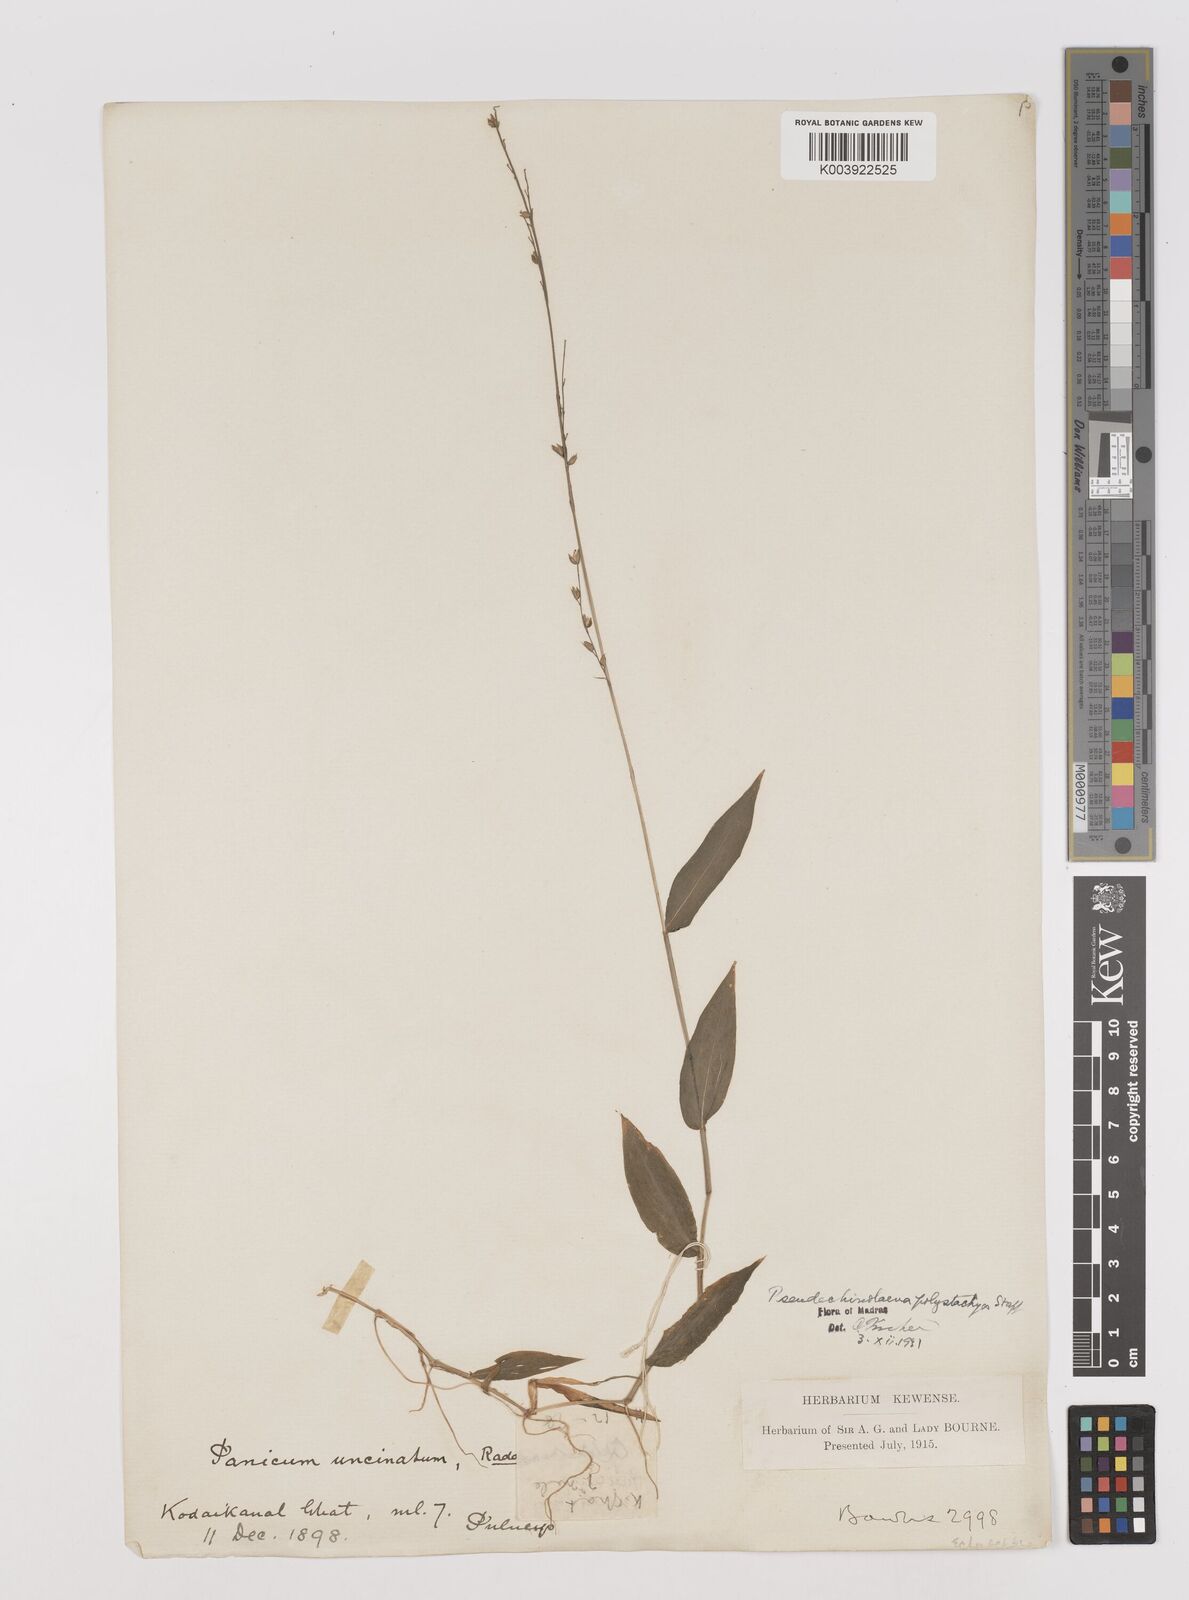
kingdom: Plantae
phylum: Tracheophyta
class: Liliopsida
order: Poales
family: Poaceae
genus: Pseudechinolaena
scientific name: Pseudechinolaena polystachya
